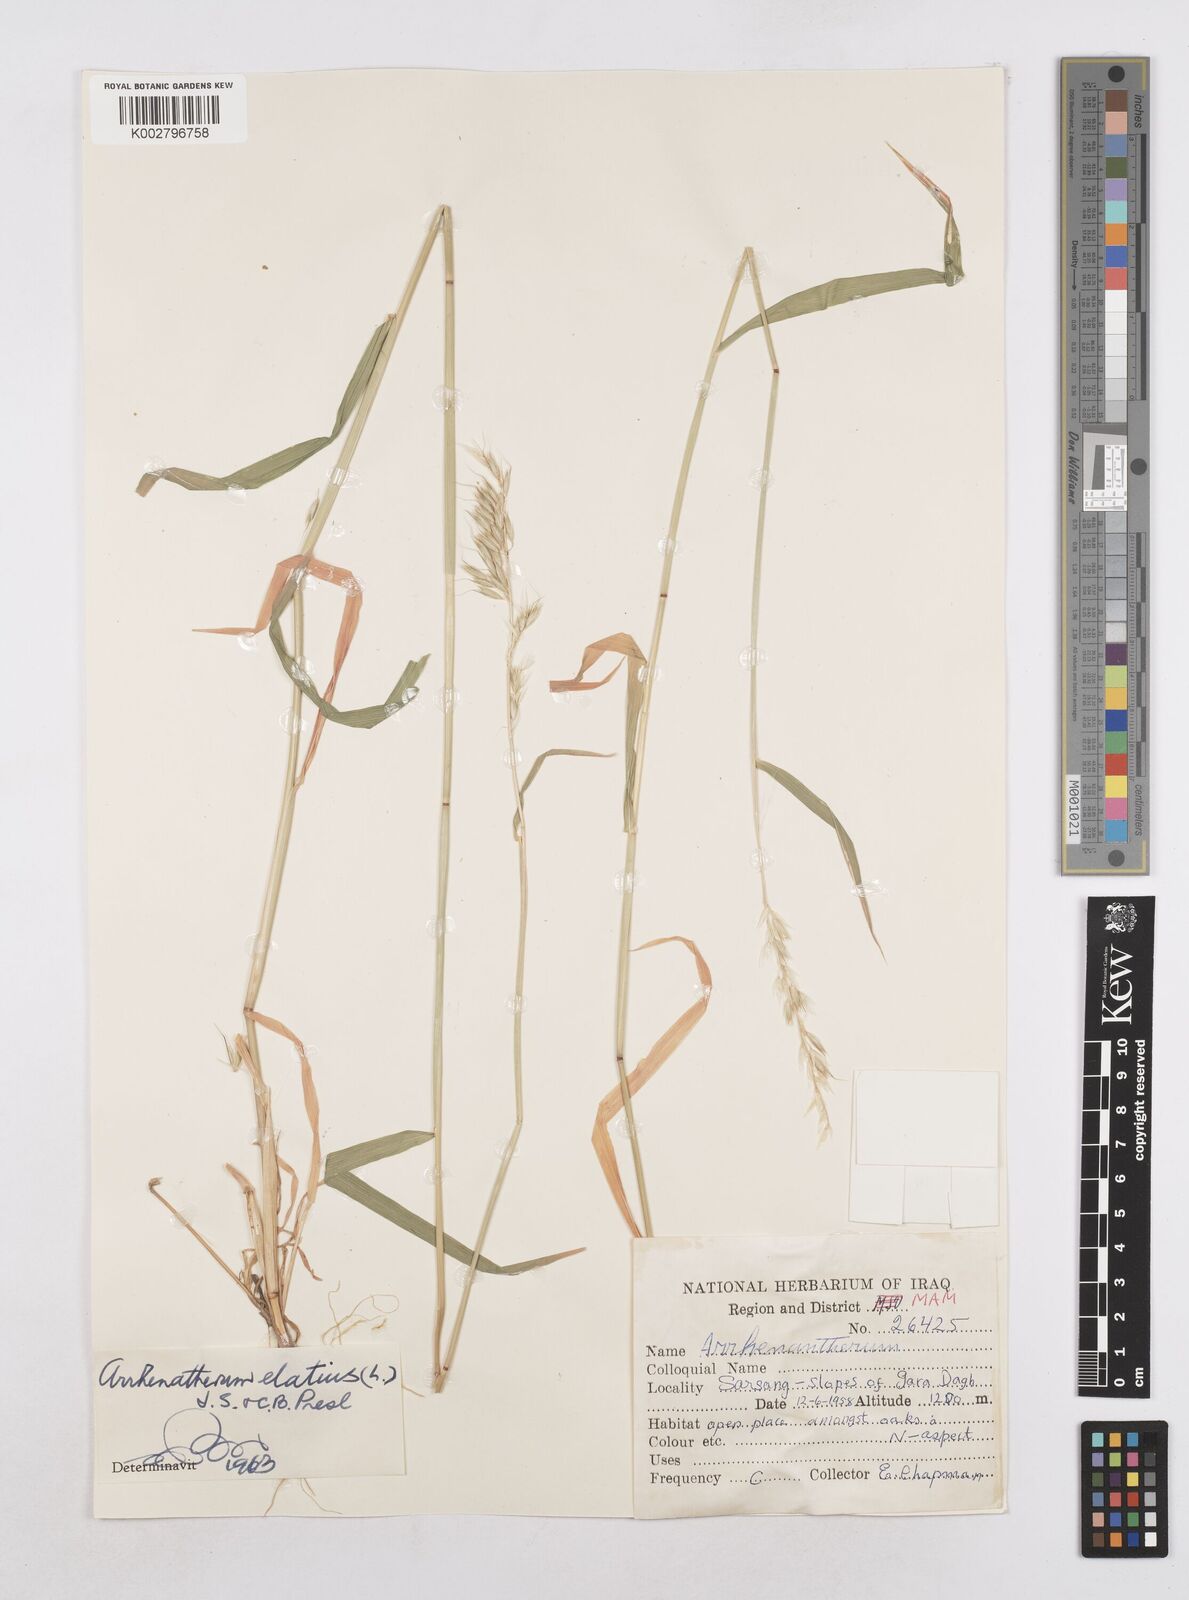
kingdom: Plantae
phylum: Tracheophyta
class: Liliopsida
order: Poales
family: Poaceae
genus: Arrhenatherum
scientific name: Arrhenatherum elatius
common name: Tall oatgrass
